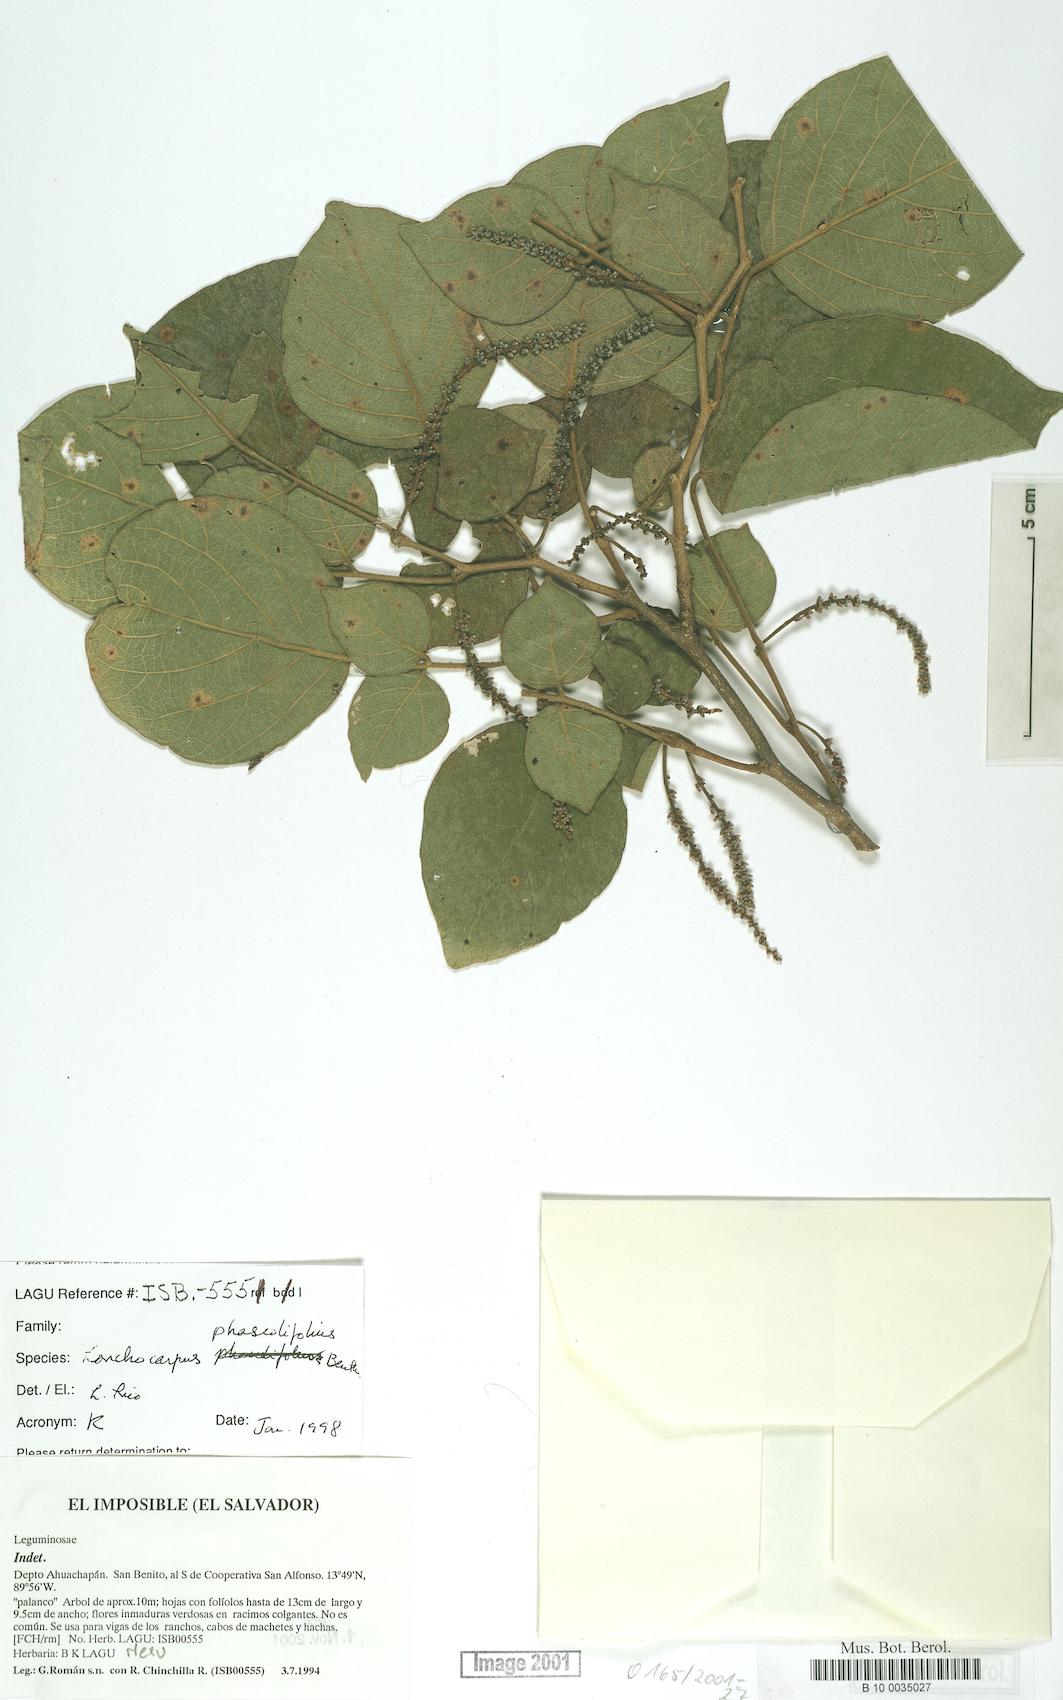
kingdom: Plantae
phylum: Tracheophyta
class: Magnoliopsida
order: Fabales
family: Fabaceae
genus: Lonchocarpus
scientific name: Lonchocarpus phaseolifolius
